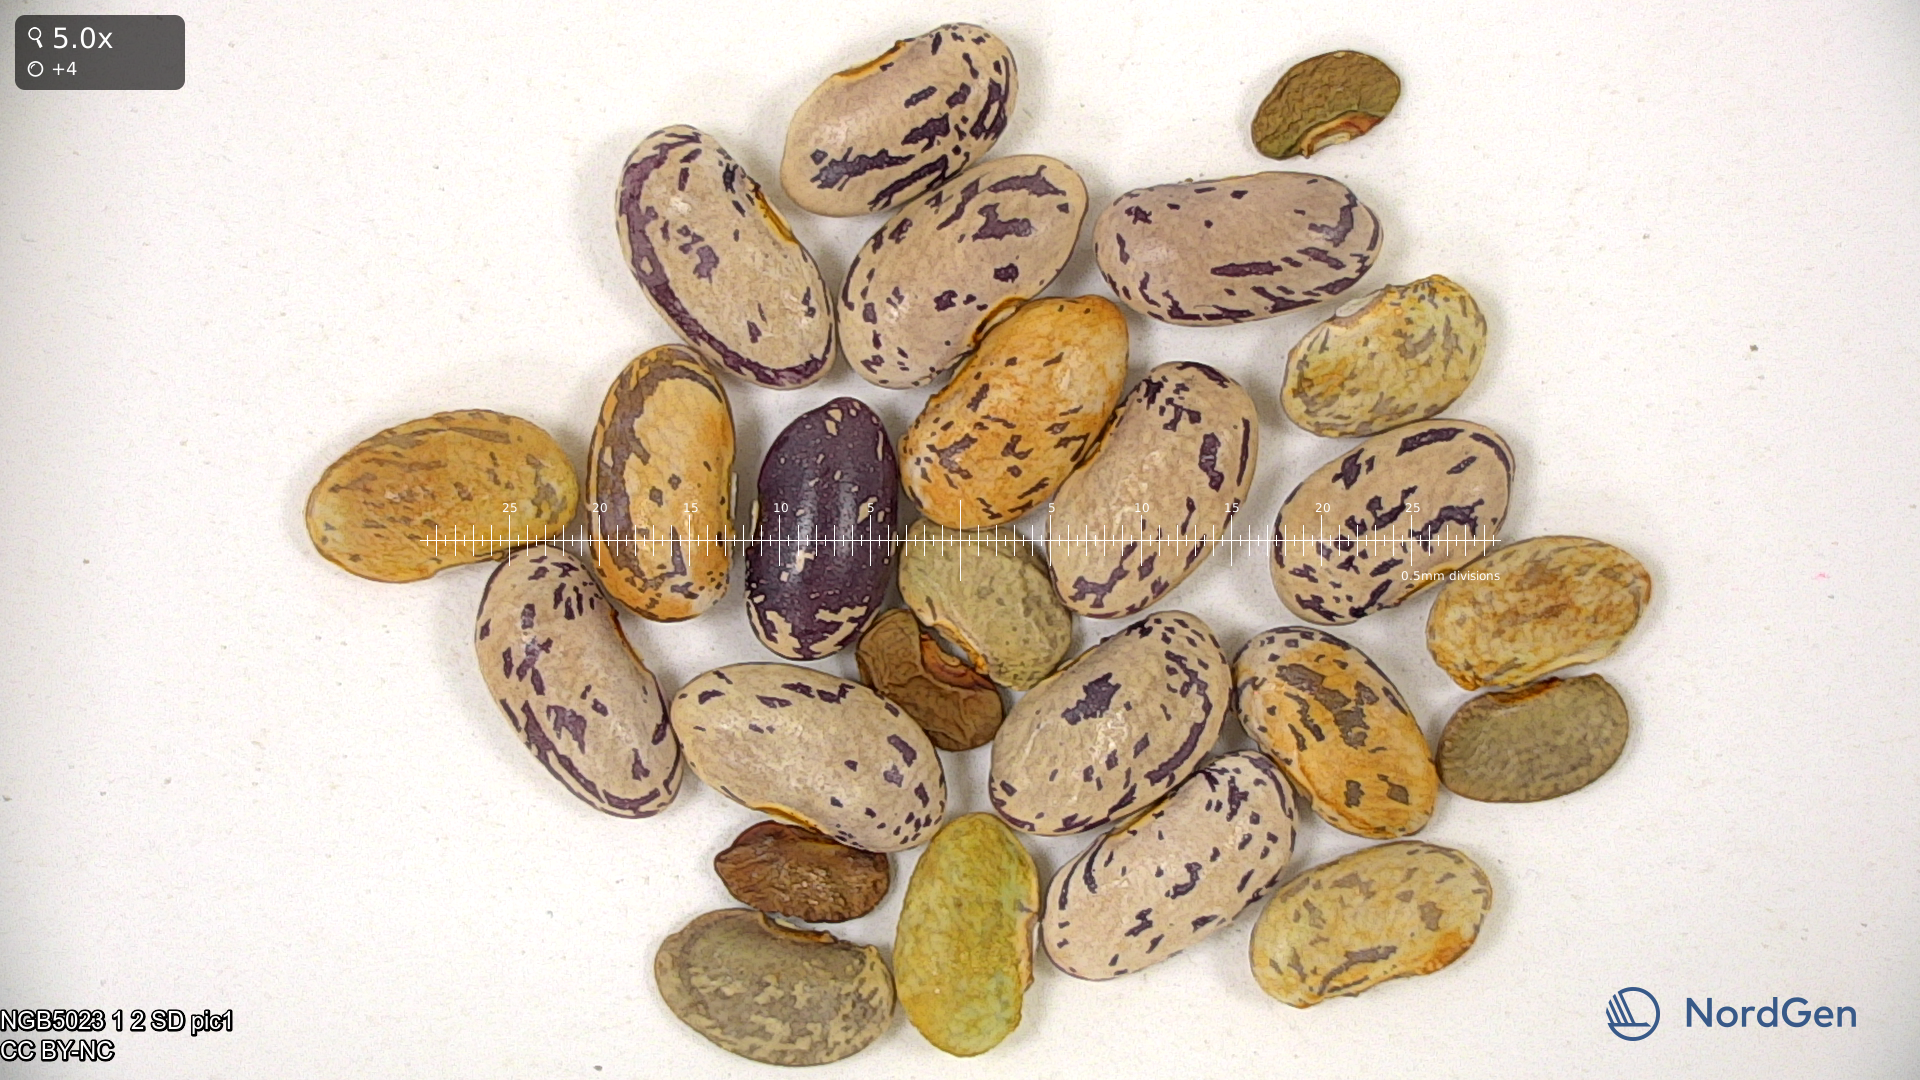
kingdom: Plantae
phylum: Tracheophyta
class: Magnoliopsida
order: Fabales
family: Fabaceae
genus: Phaseolus
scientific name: Phaseolus vulgaris
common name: Bean
